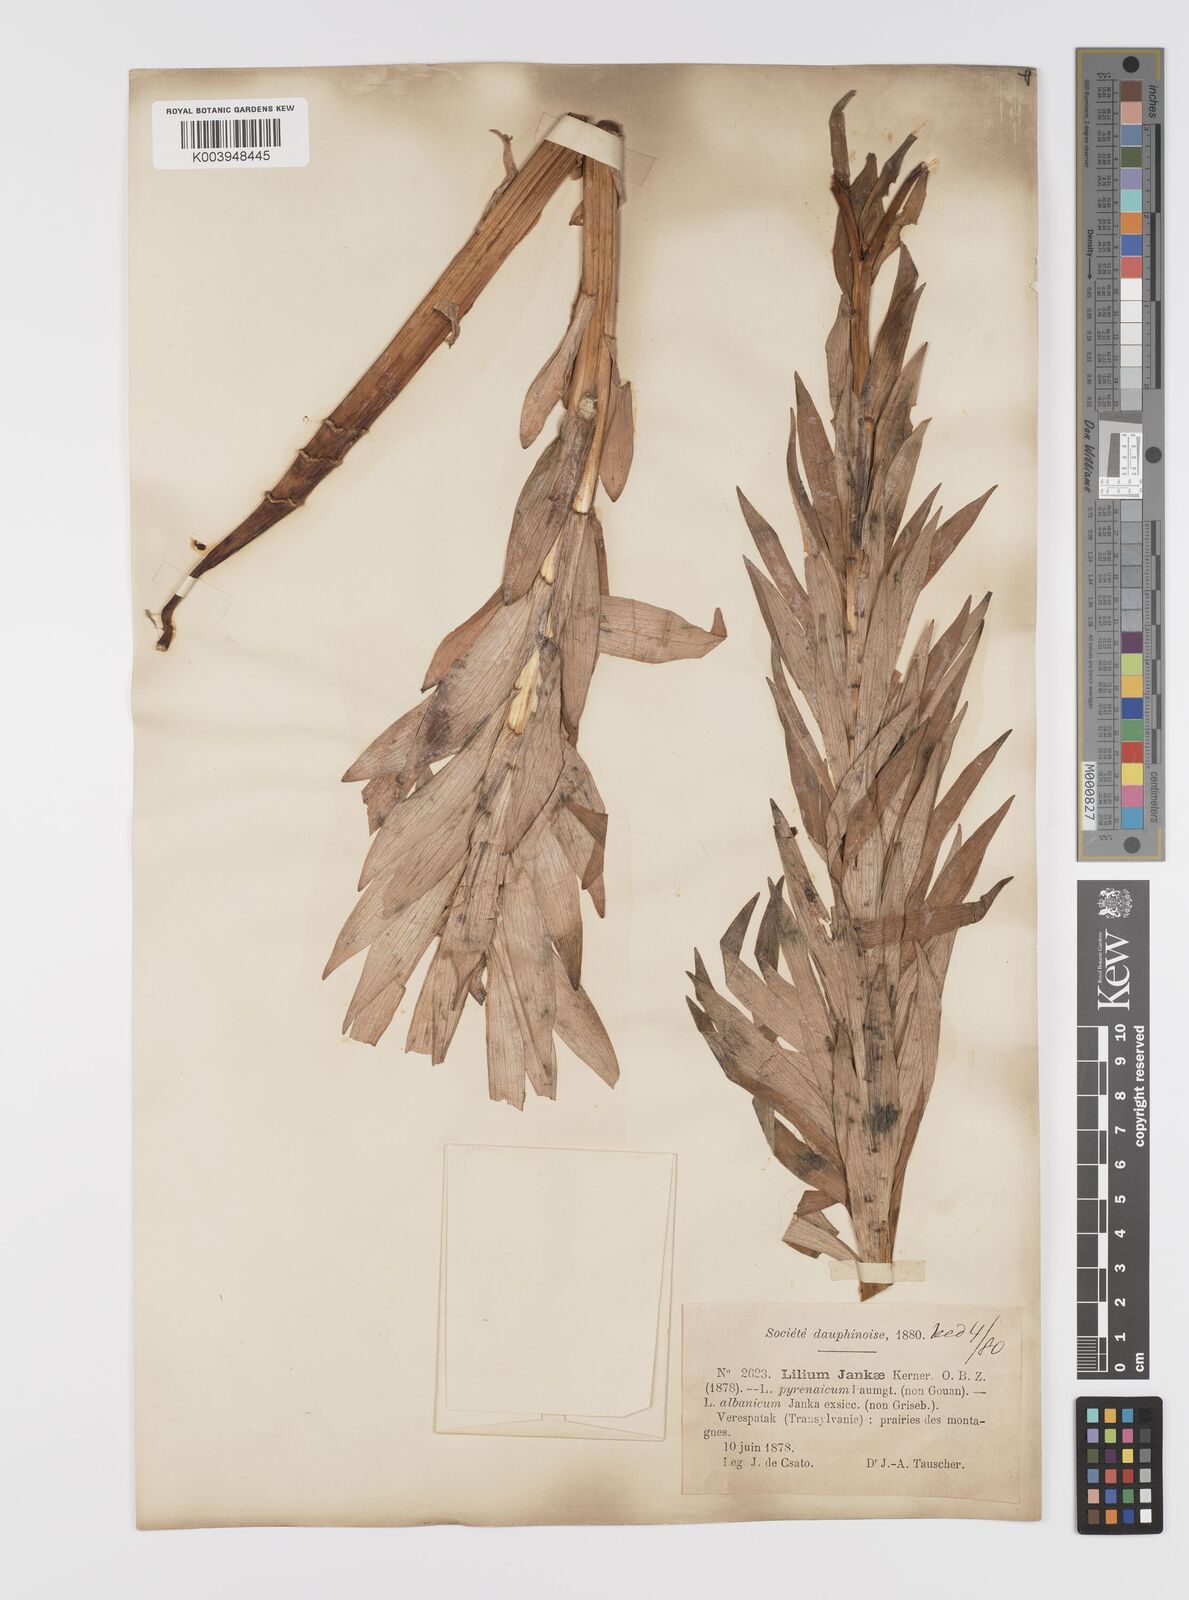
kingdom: Plantae
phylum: Tracheophyta
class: Liliopsida
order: Liliales
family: Liliaceae
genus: Lilium
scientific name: Lilium jankae
